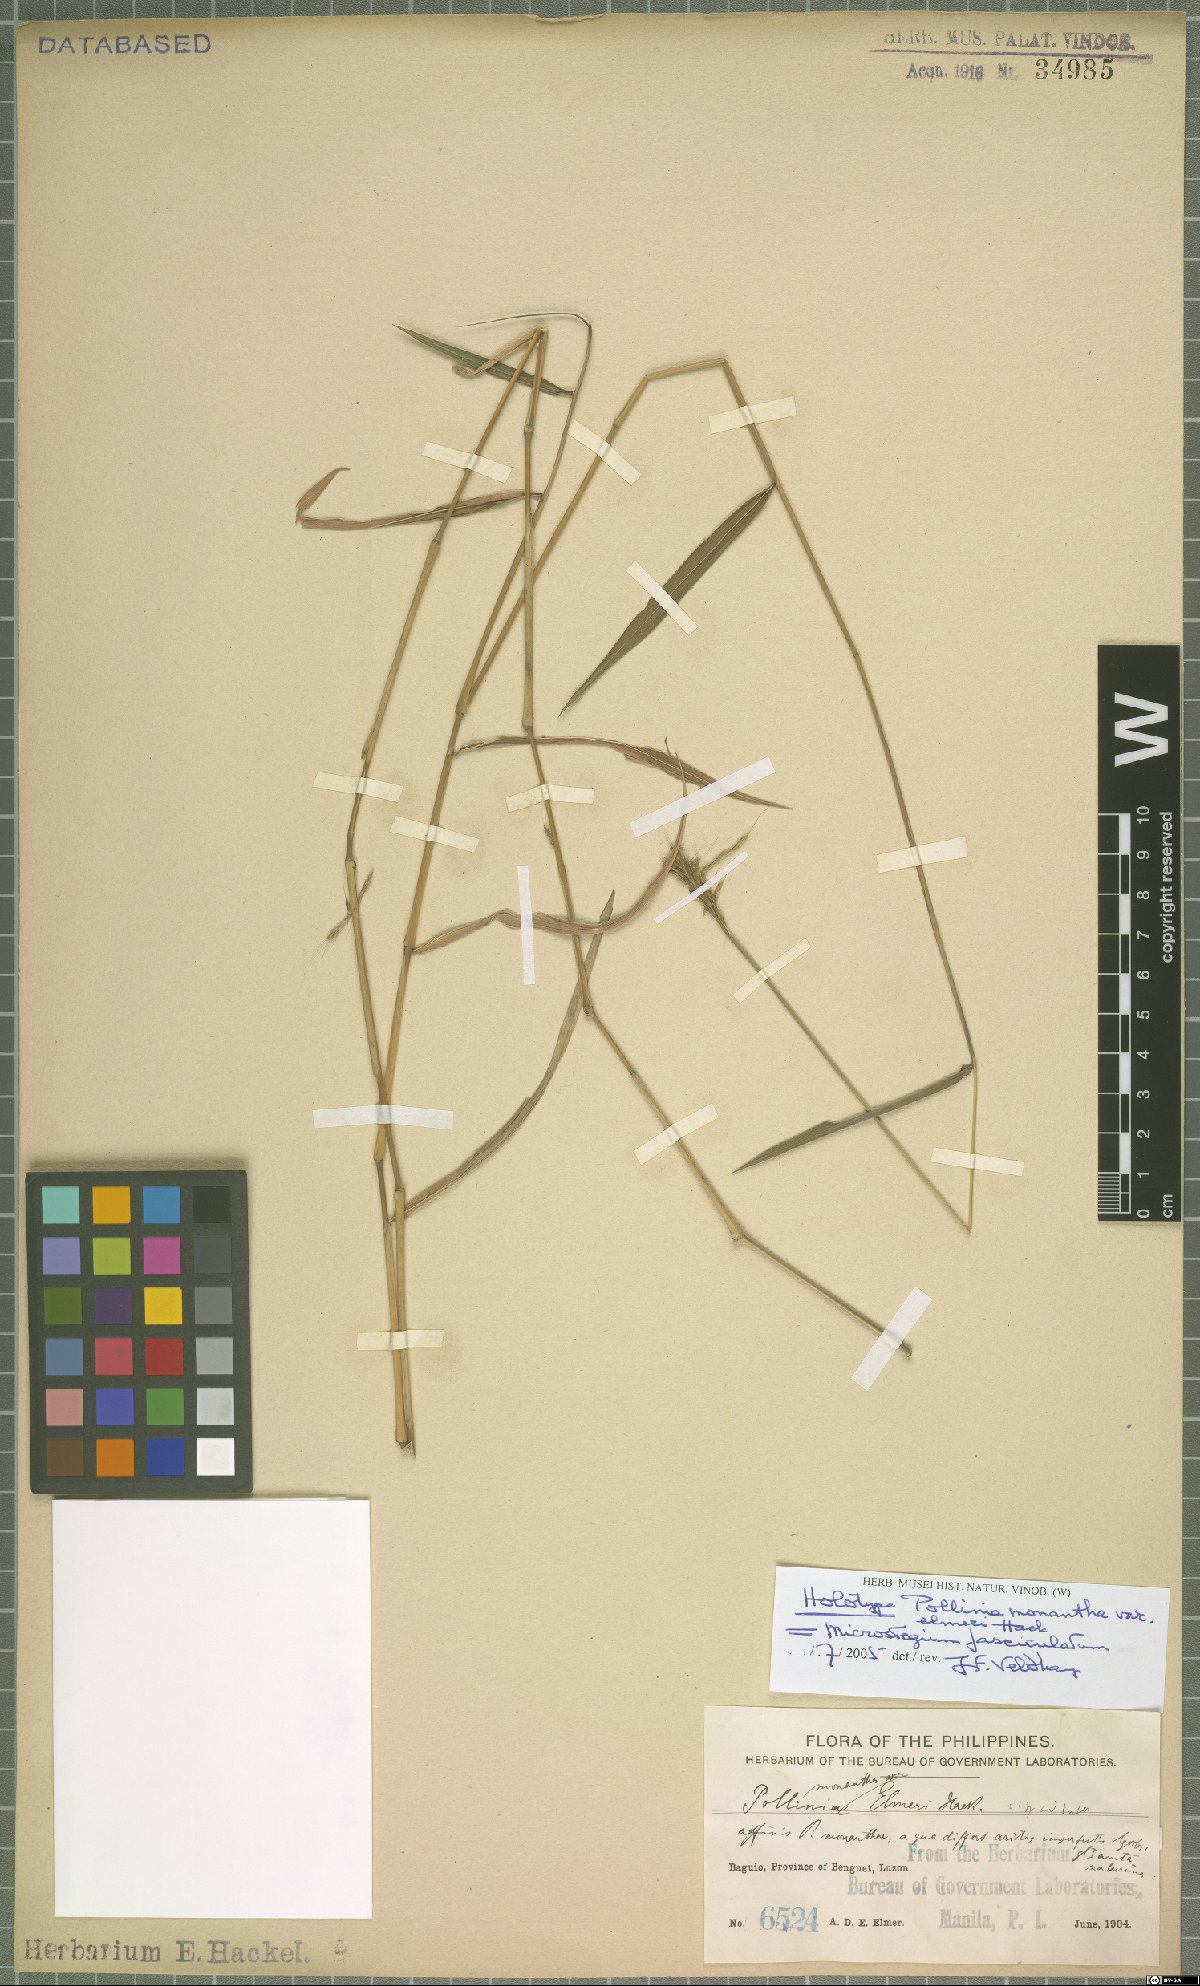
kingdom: Plantae
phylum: Tracheophyta
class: Liliopsida
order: Poales
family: Poaceae
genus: Microstegium
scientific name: Microstegium fasciculatum
